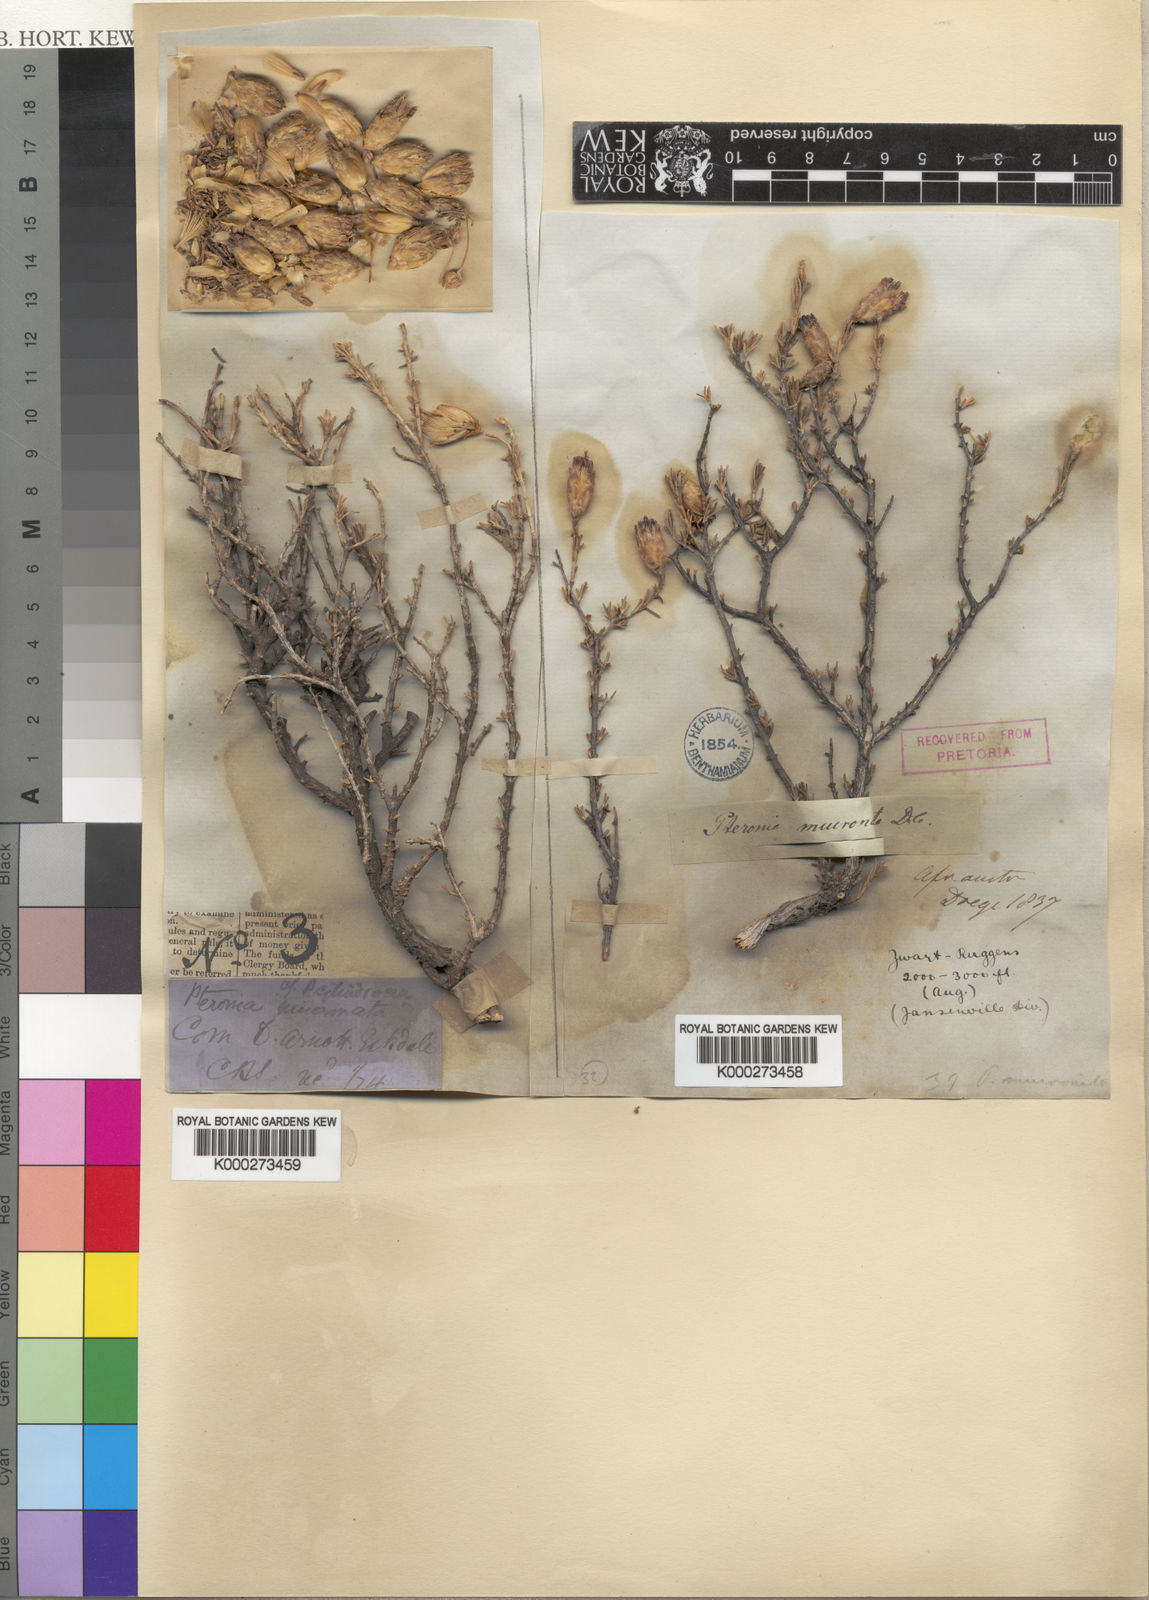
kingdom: Plantae
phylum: Tracheophyta
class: Magnoliopsida
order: Asterales
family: Asteraceae
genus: Pteronia
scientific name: Pteronia mucronata
